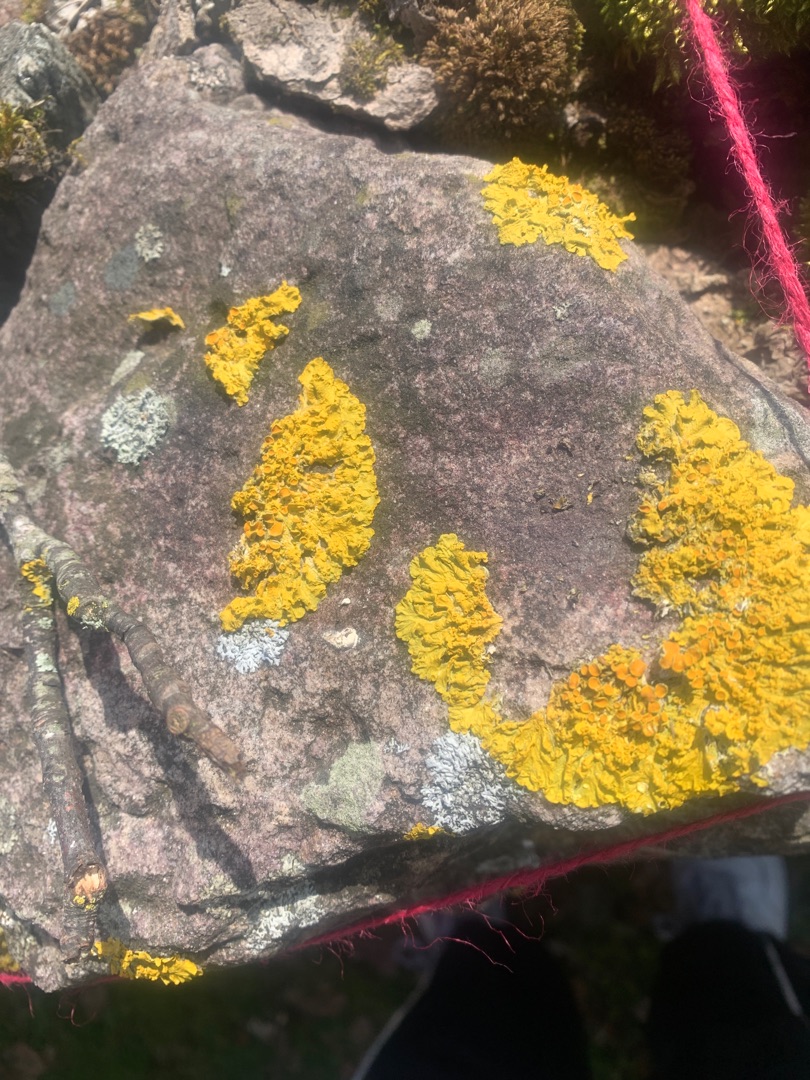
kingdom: Fungi
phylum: Ascomycota
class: Lecanoromycetes
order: Teloschistales
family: Teloschistaceae
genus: Xanthoria
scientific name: Xanthoria parietina
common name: Almindelig væggelav
